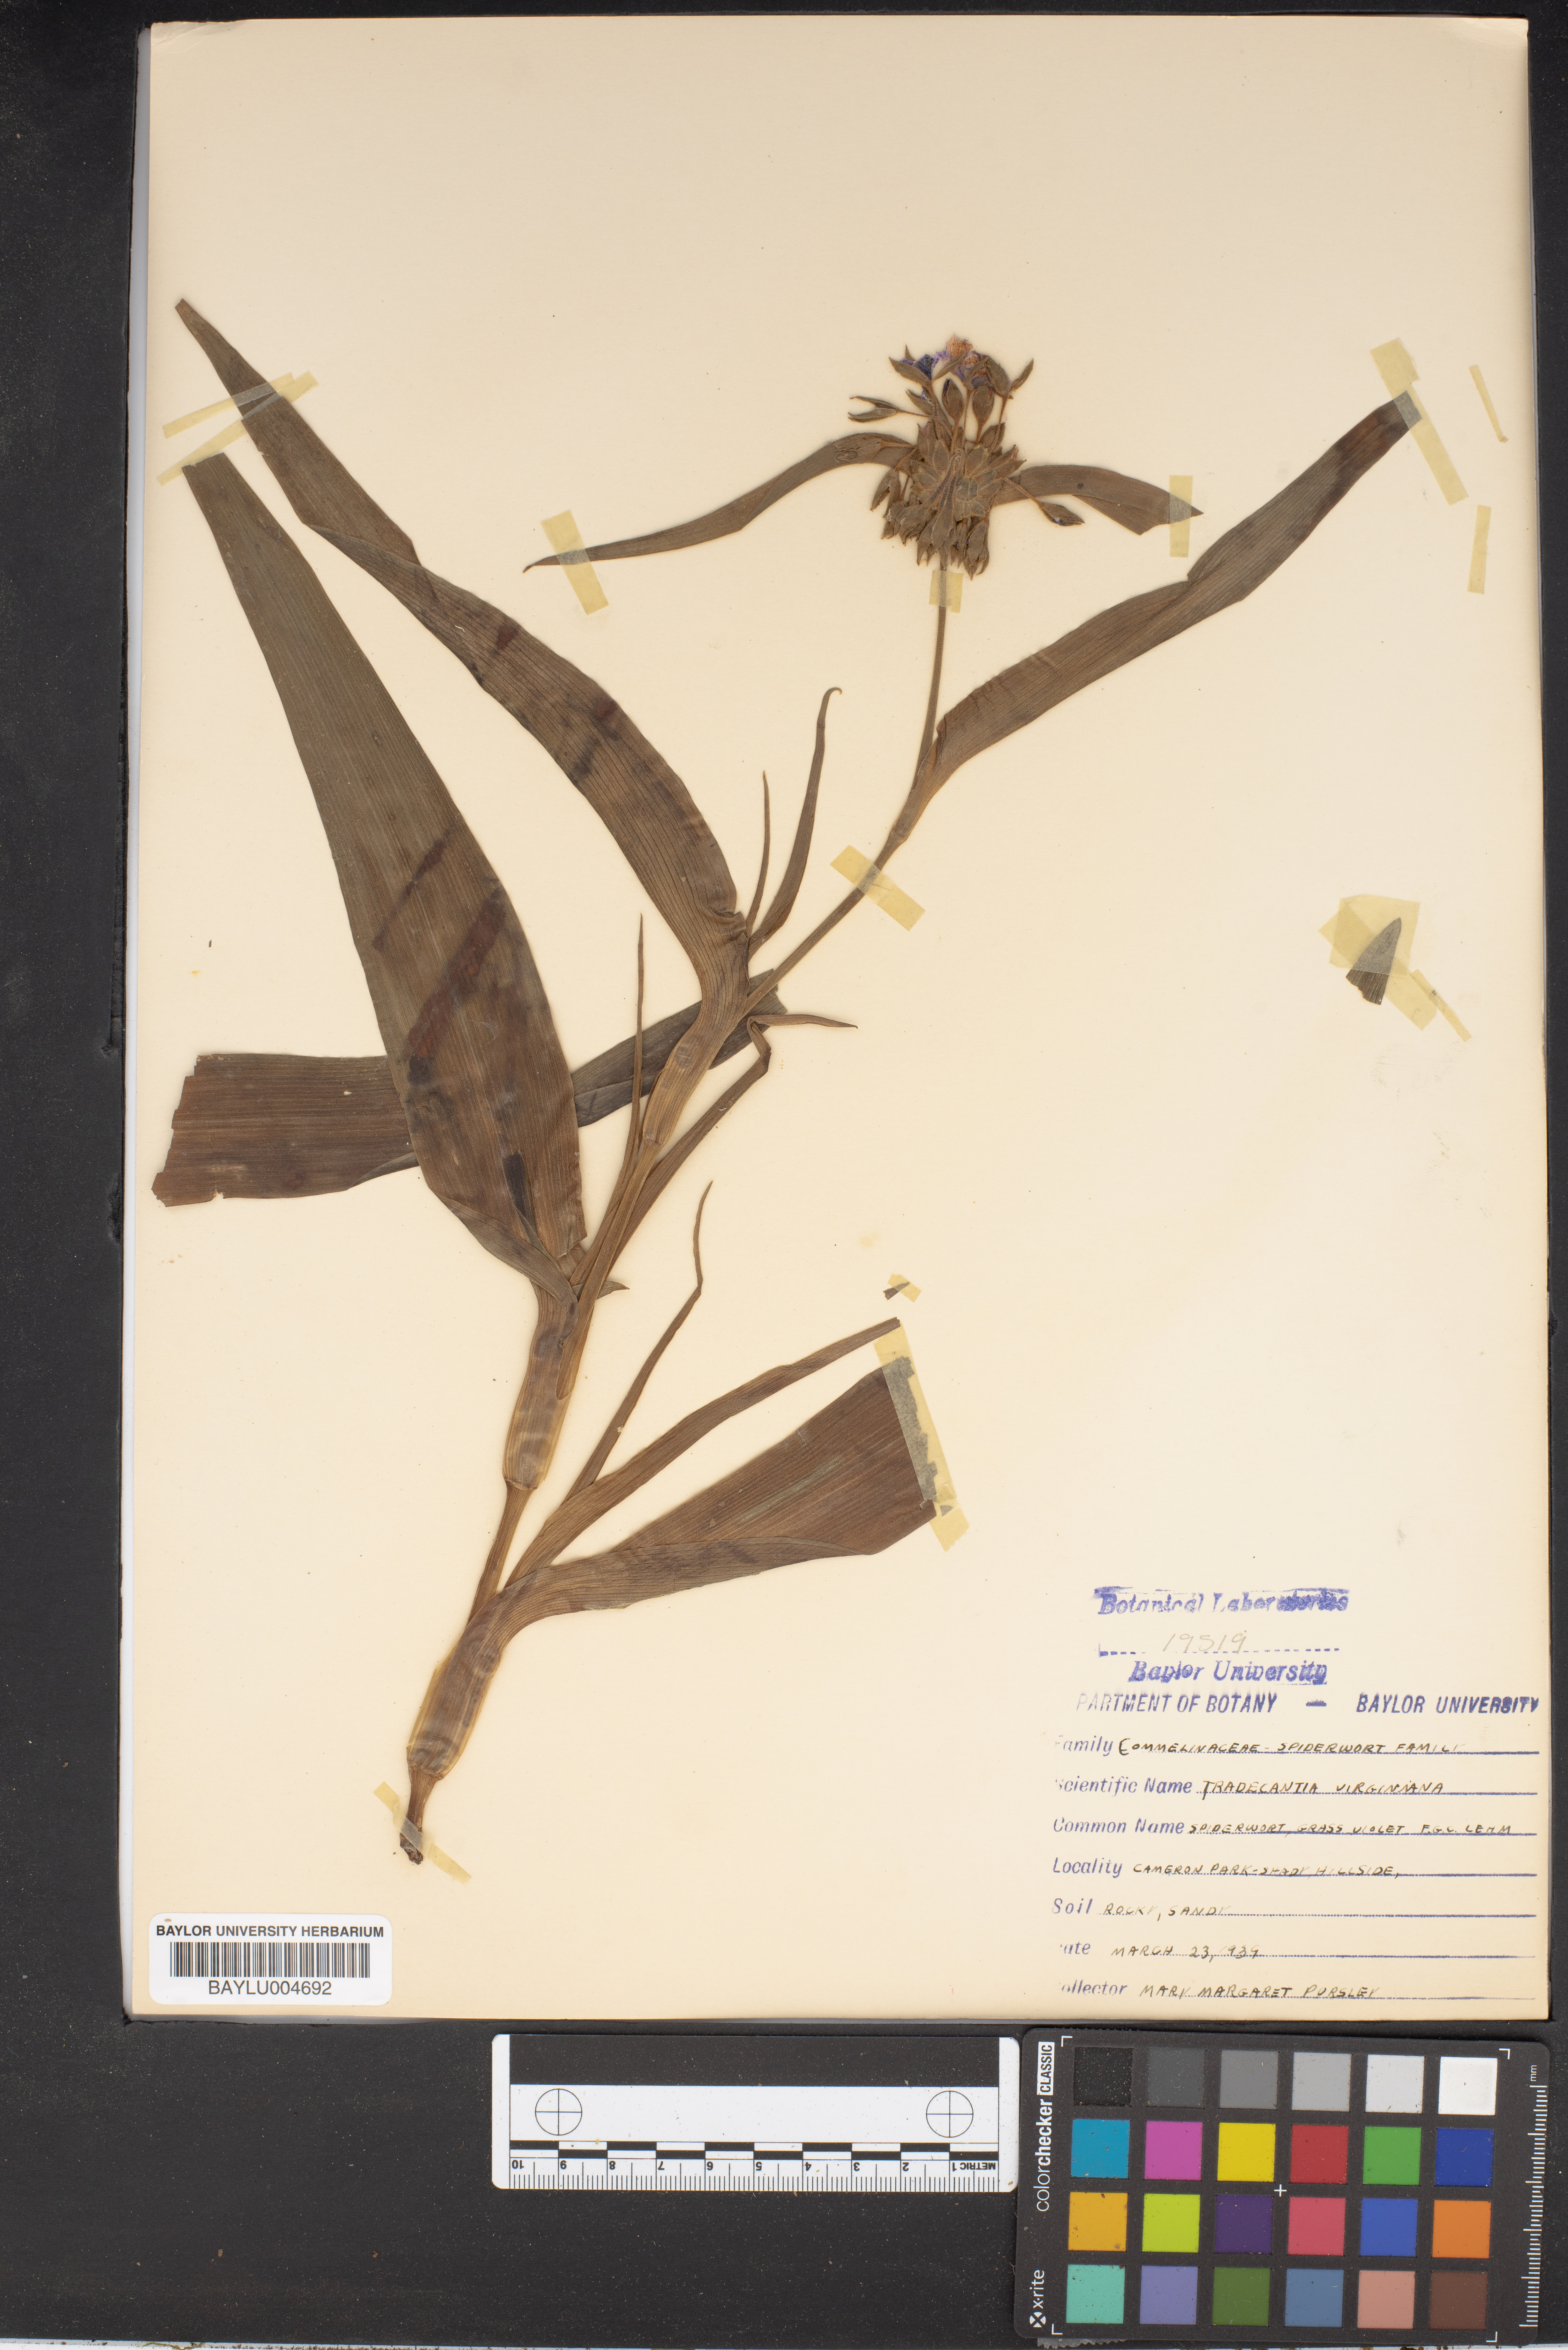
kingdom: Plantae
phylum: Tracheophyta
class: Liliopsida
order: Commelinales
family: Commelinaceae
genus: Tradescantia
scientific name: Tradescantia virginiana
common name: Spiderwort
